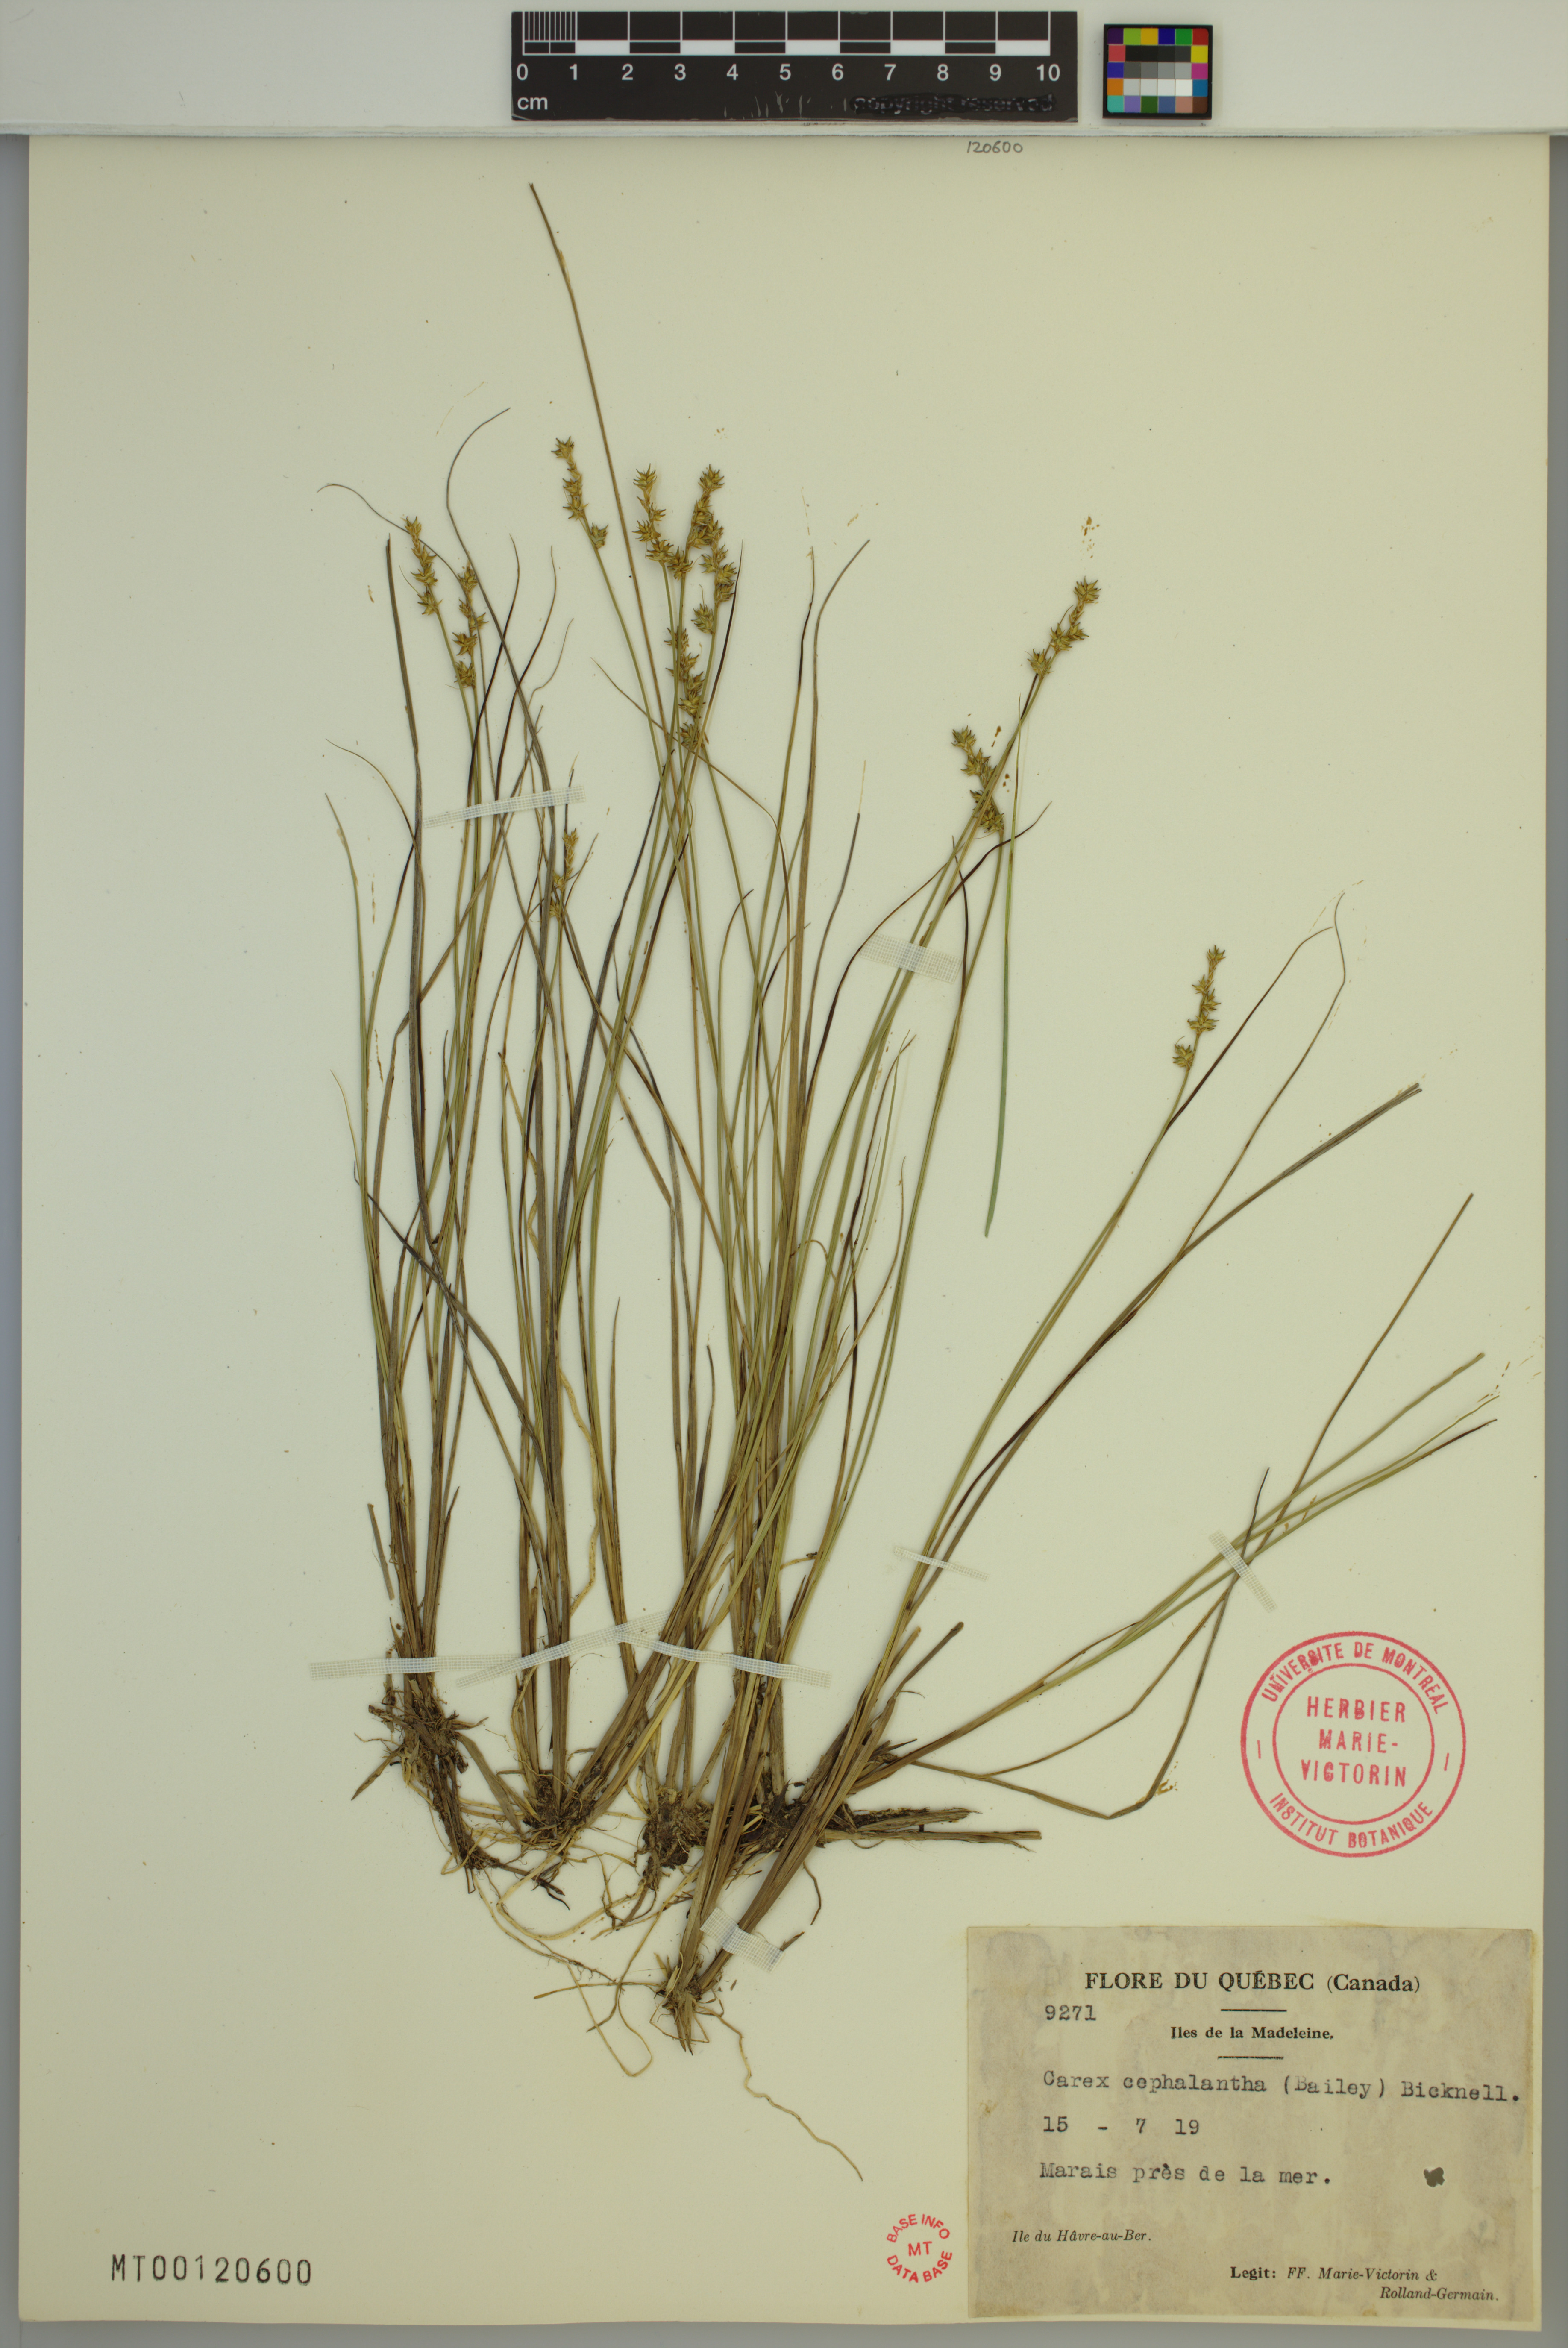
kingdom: Plantae
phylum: Tracheophyta
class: Liliopsida
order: Poales
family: Cyperaceae
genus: Carex
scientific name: Carex echinata
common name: Star sedge
